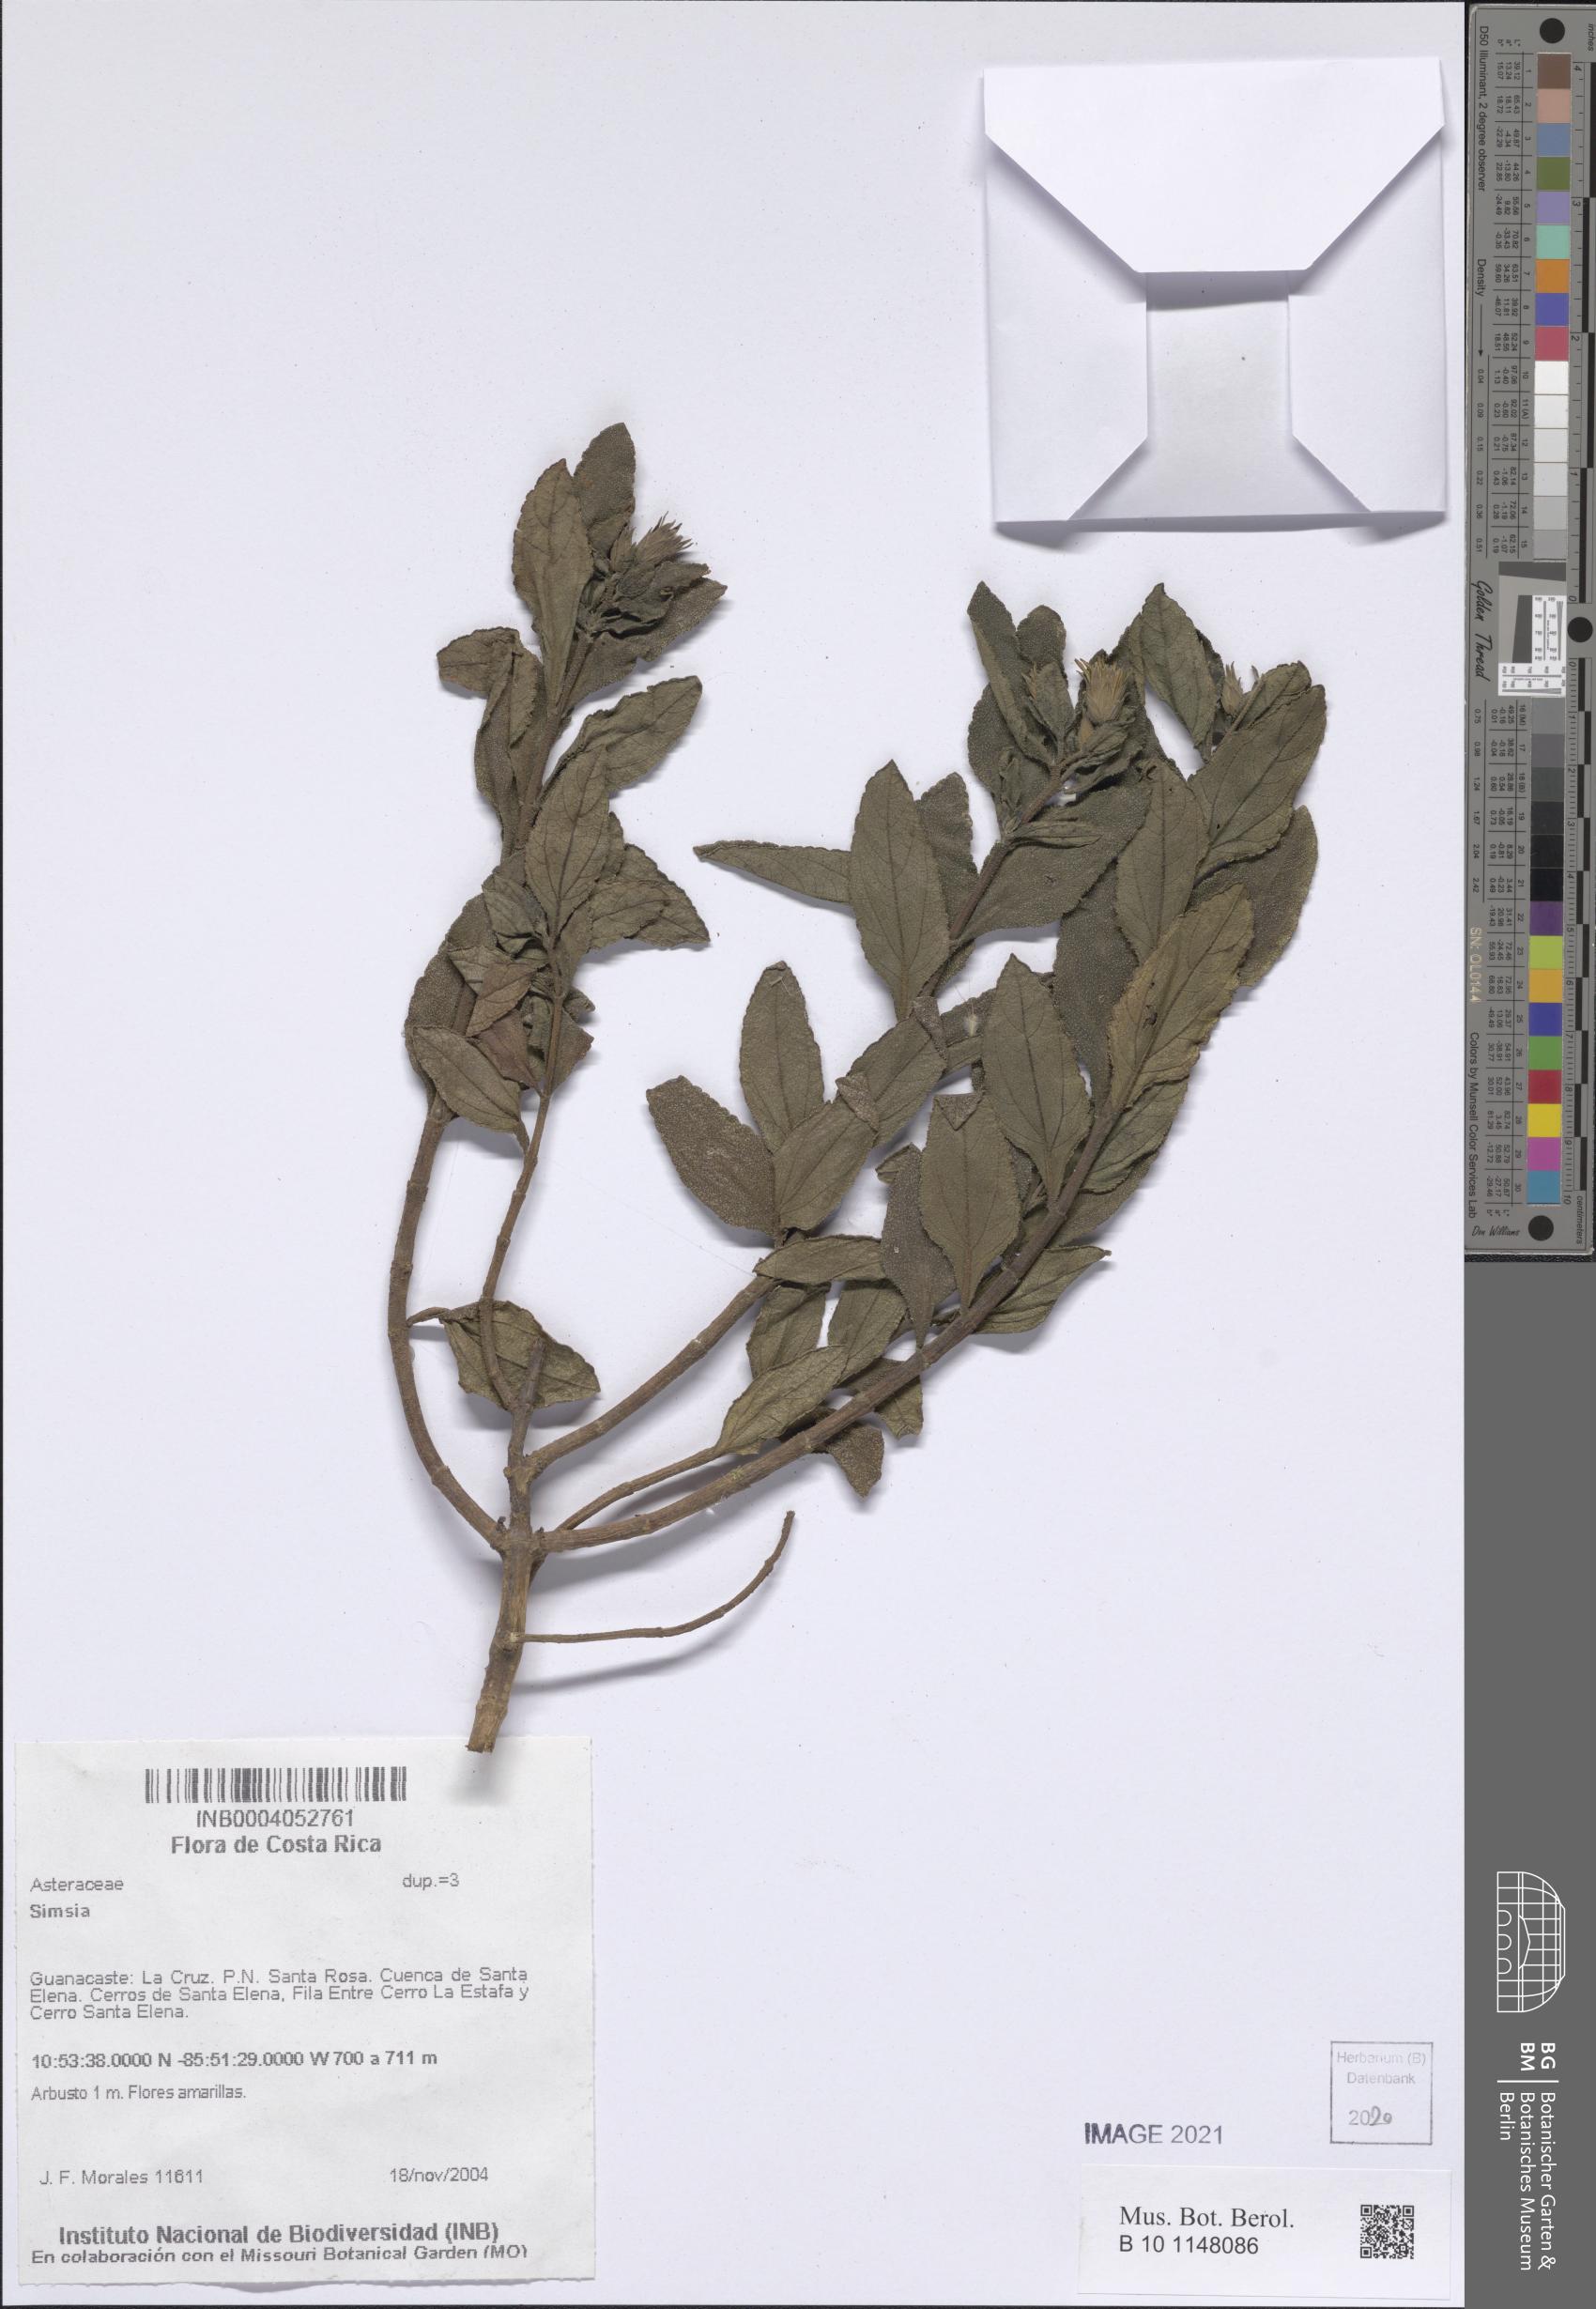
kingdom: Plantae
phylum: Tracheophyta
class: Magnoliopsida
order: Asterales
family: Asteraceae
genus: Simsia
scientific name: Simsia
